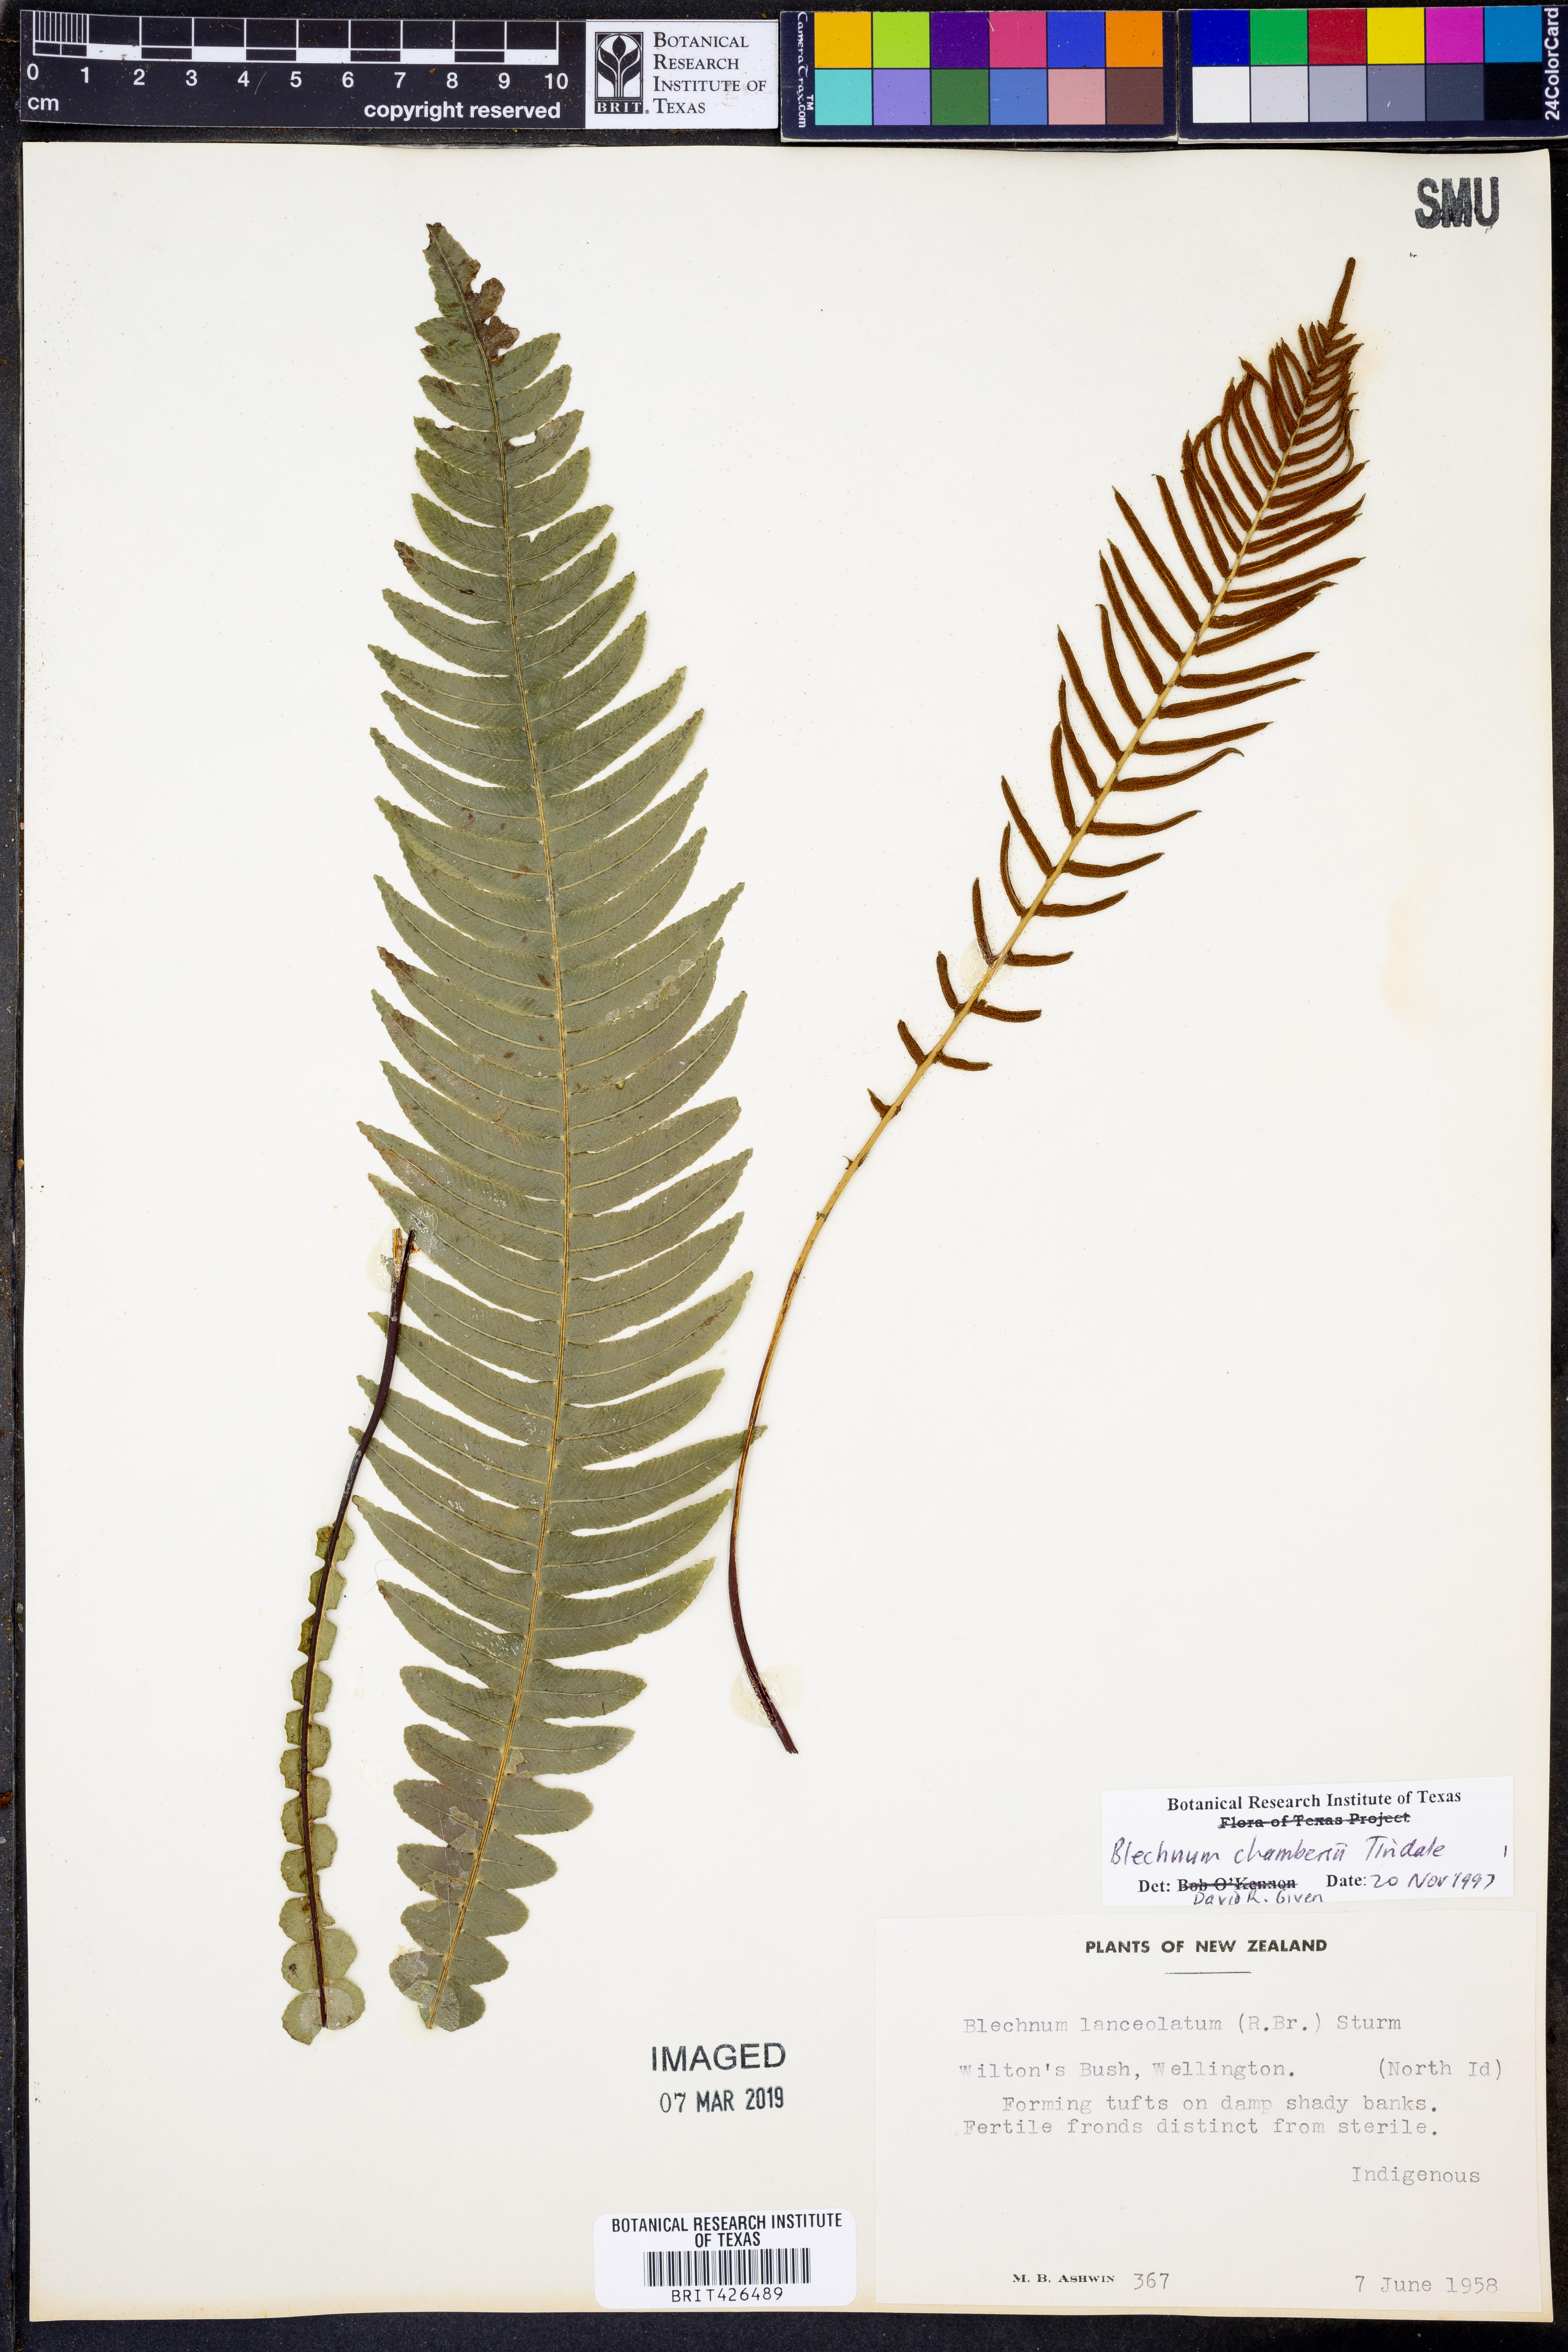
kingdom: Plantae
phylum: Tracheophyta
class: Polypodiopsida
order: Polypodiales
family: Blechnaceae
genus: Austroblechnum
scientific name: Austroblechnum lanceolatum
